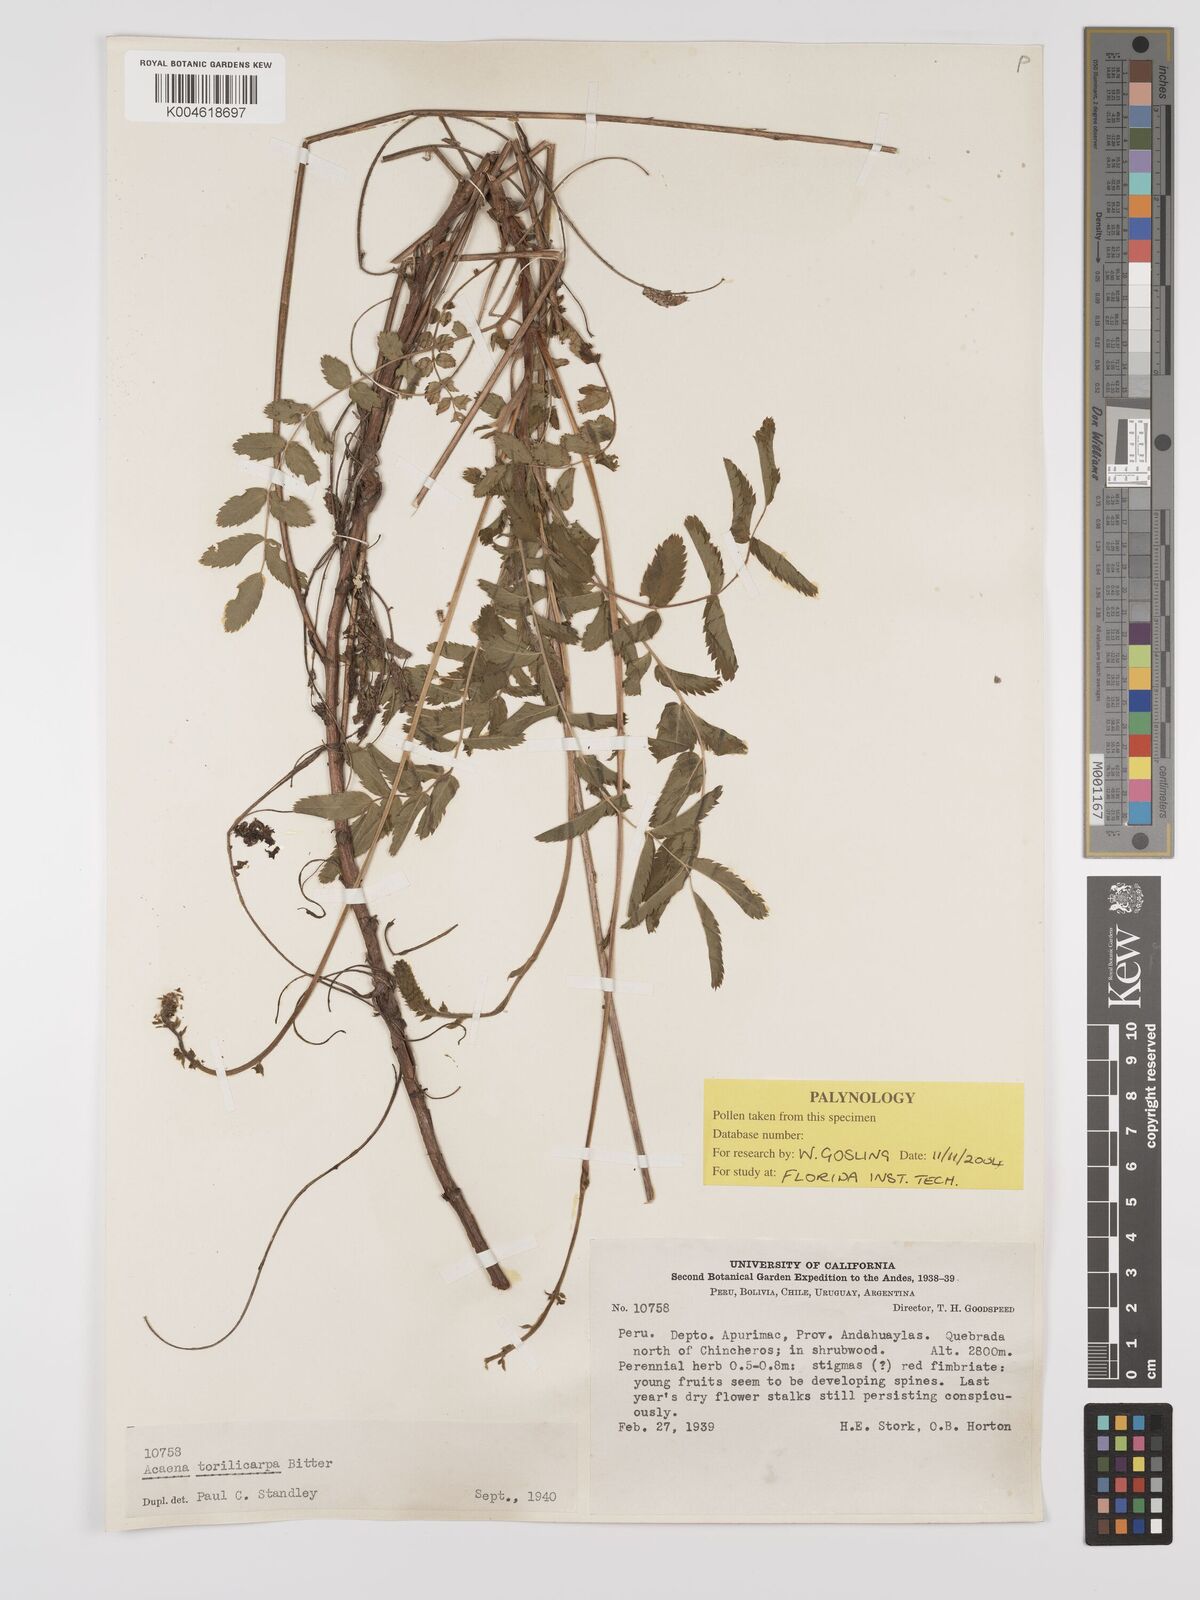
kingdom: Plantae
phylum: Tracheophyta
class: Magnoliopsida
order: Rosales
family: Rosaceae
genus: Acaena
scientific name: Acaena torilicarpa
